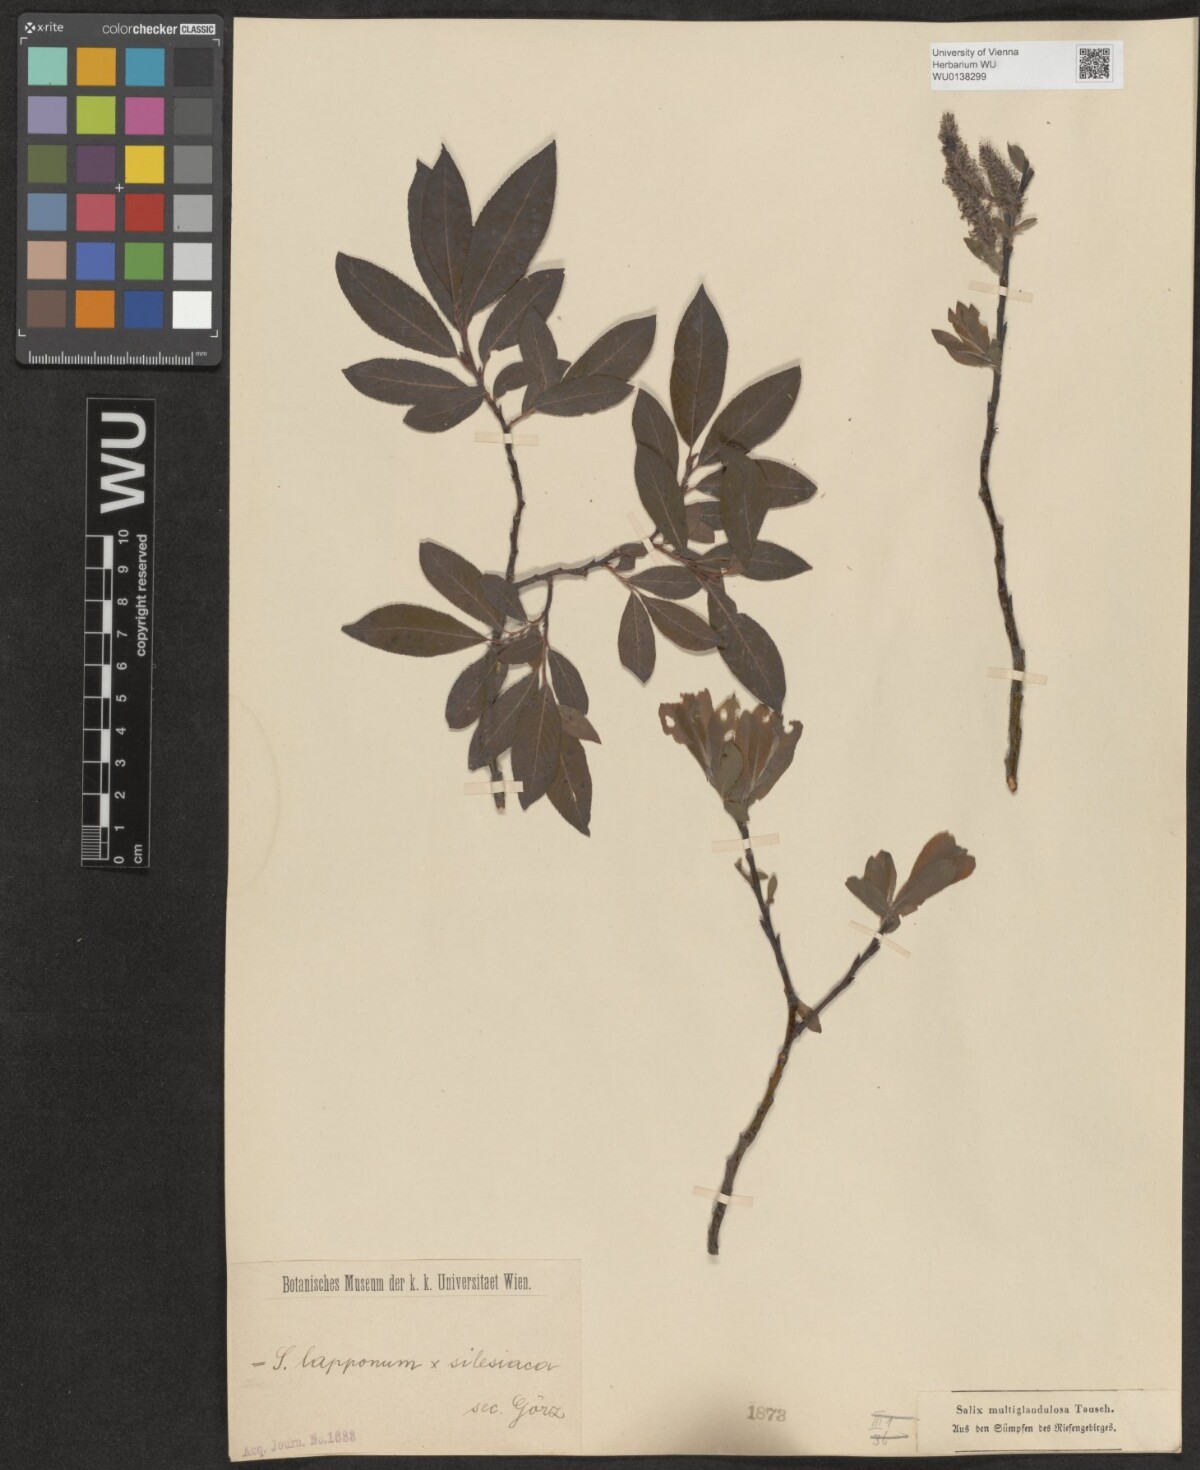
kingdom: Plantae
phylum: Tracheophyta
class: Magnoliopsida
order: Malpighiales
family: Salicaceae
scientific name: Salicaceae
